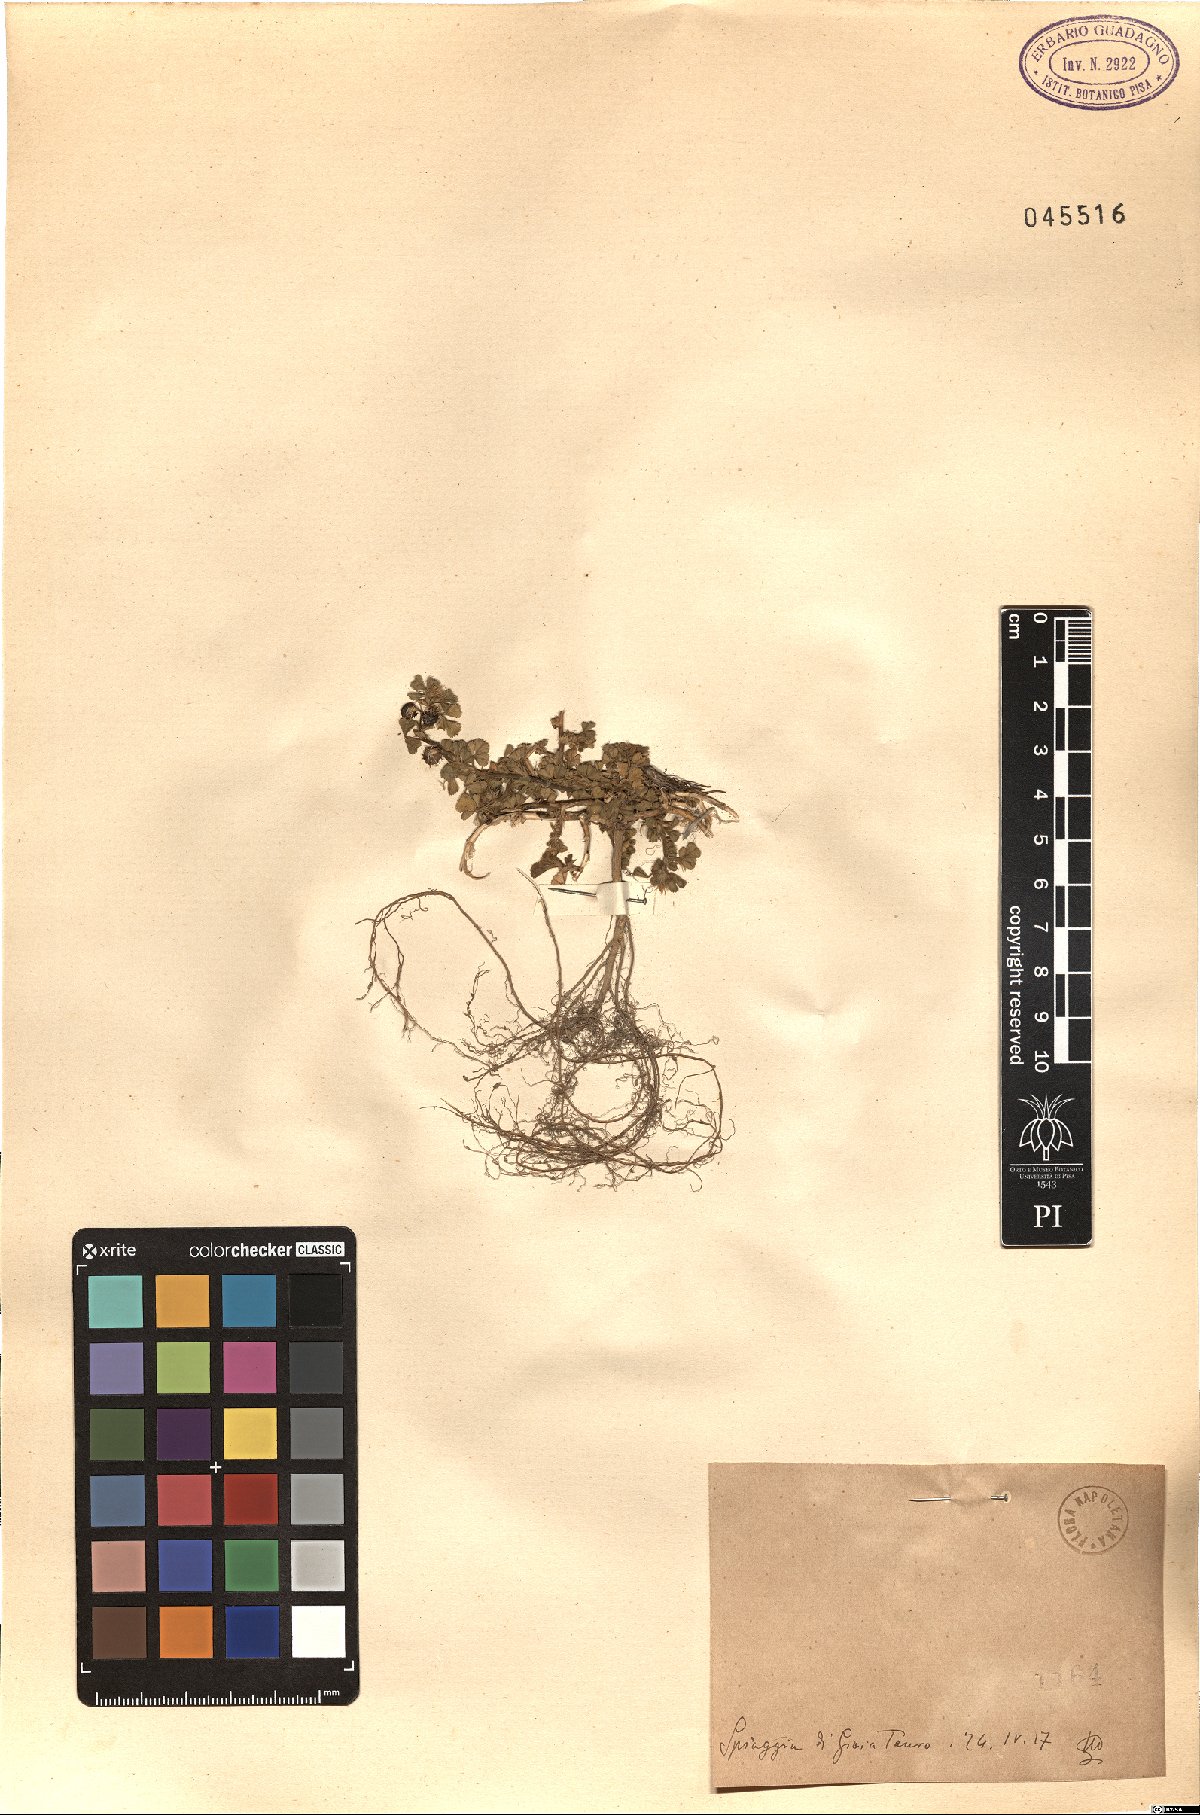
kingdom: Plantae
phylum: Tracheophyta
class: Magnoliopsida
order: Fabales
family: Fabaceae
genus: Medicago
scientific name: Medicago
